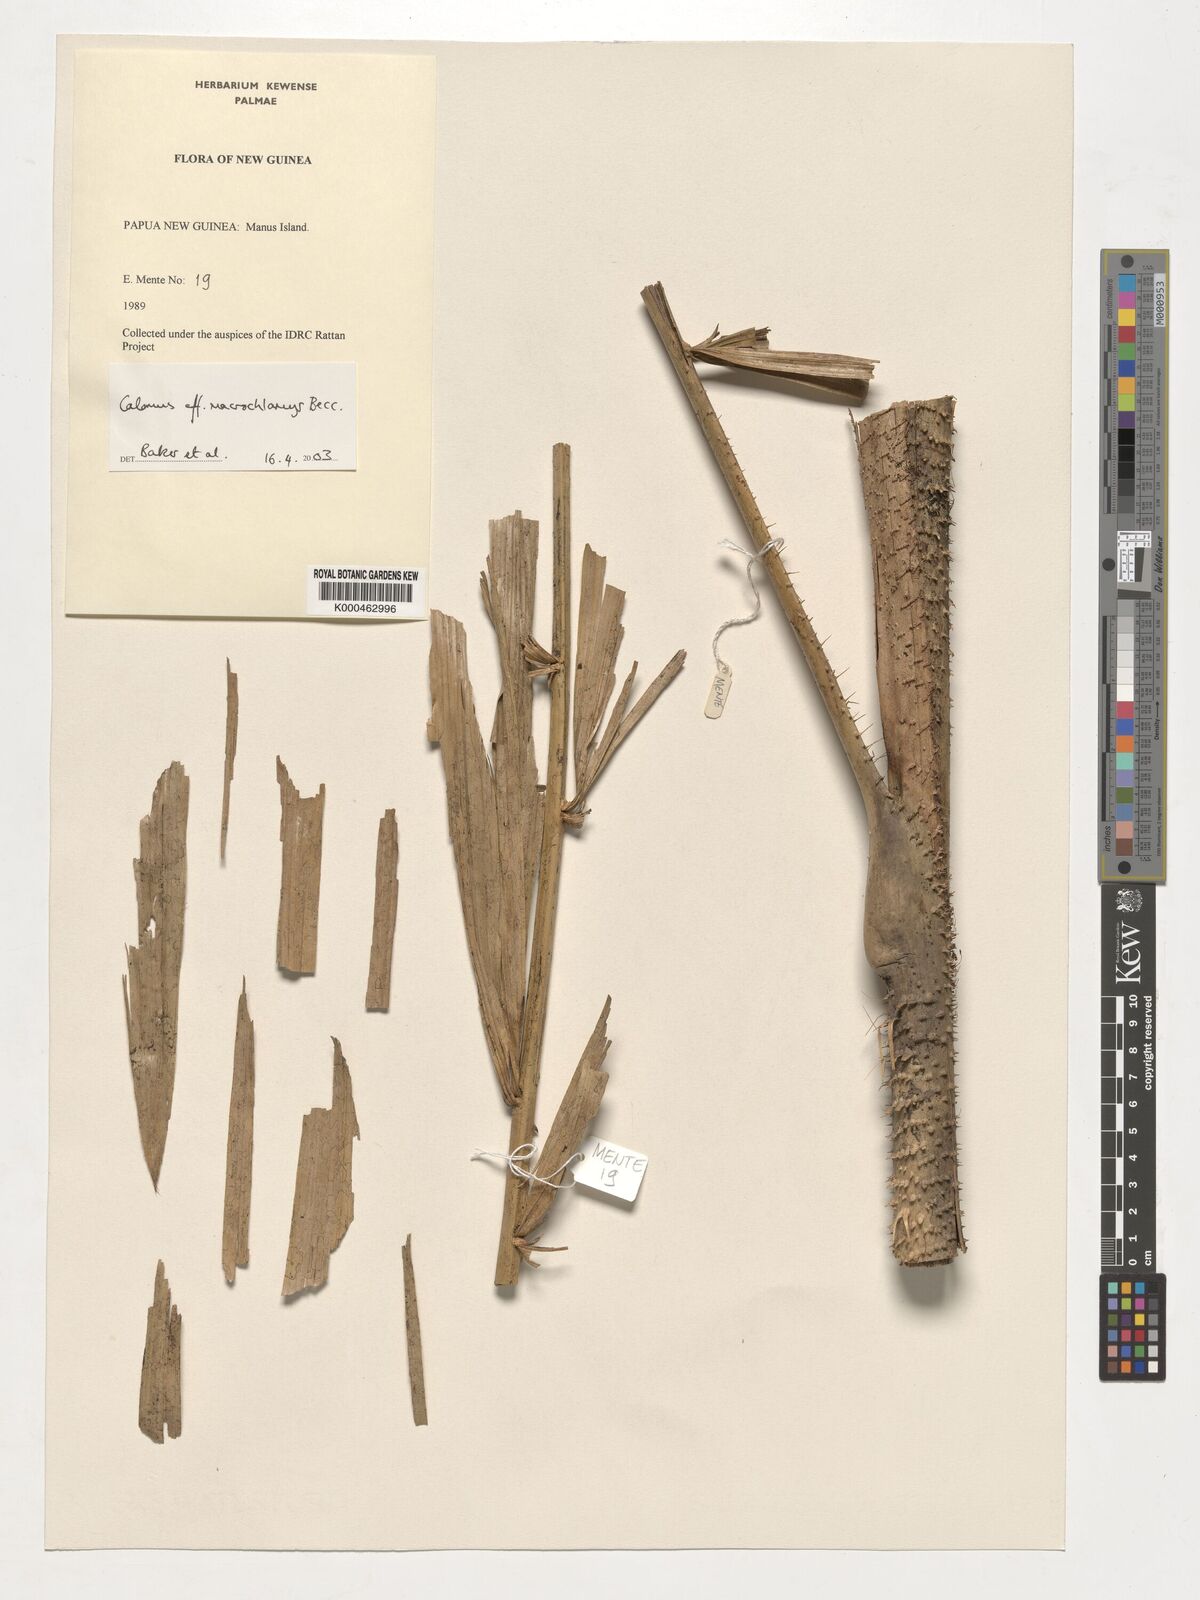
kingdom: Plantae
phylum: Tracheophyta
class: Liliopsida
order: Arecales
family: Arecaceae
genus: Calamus
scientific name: Calamus
